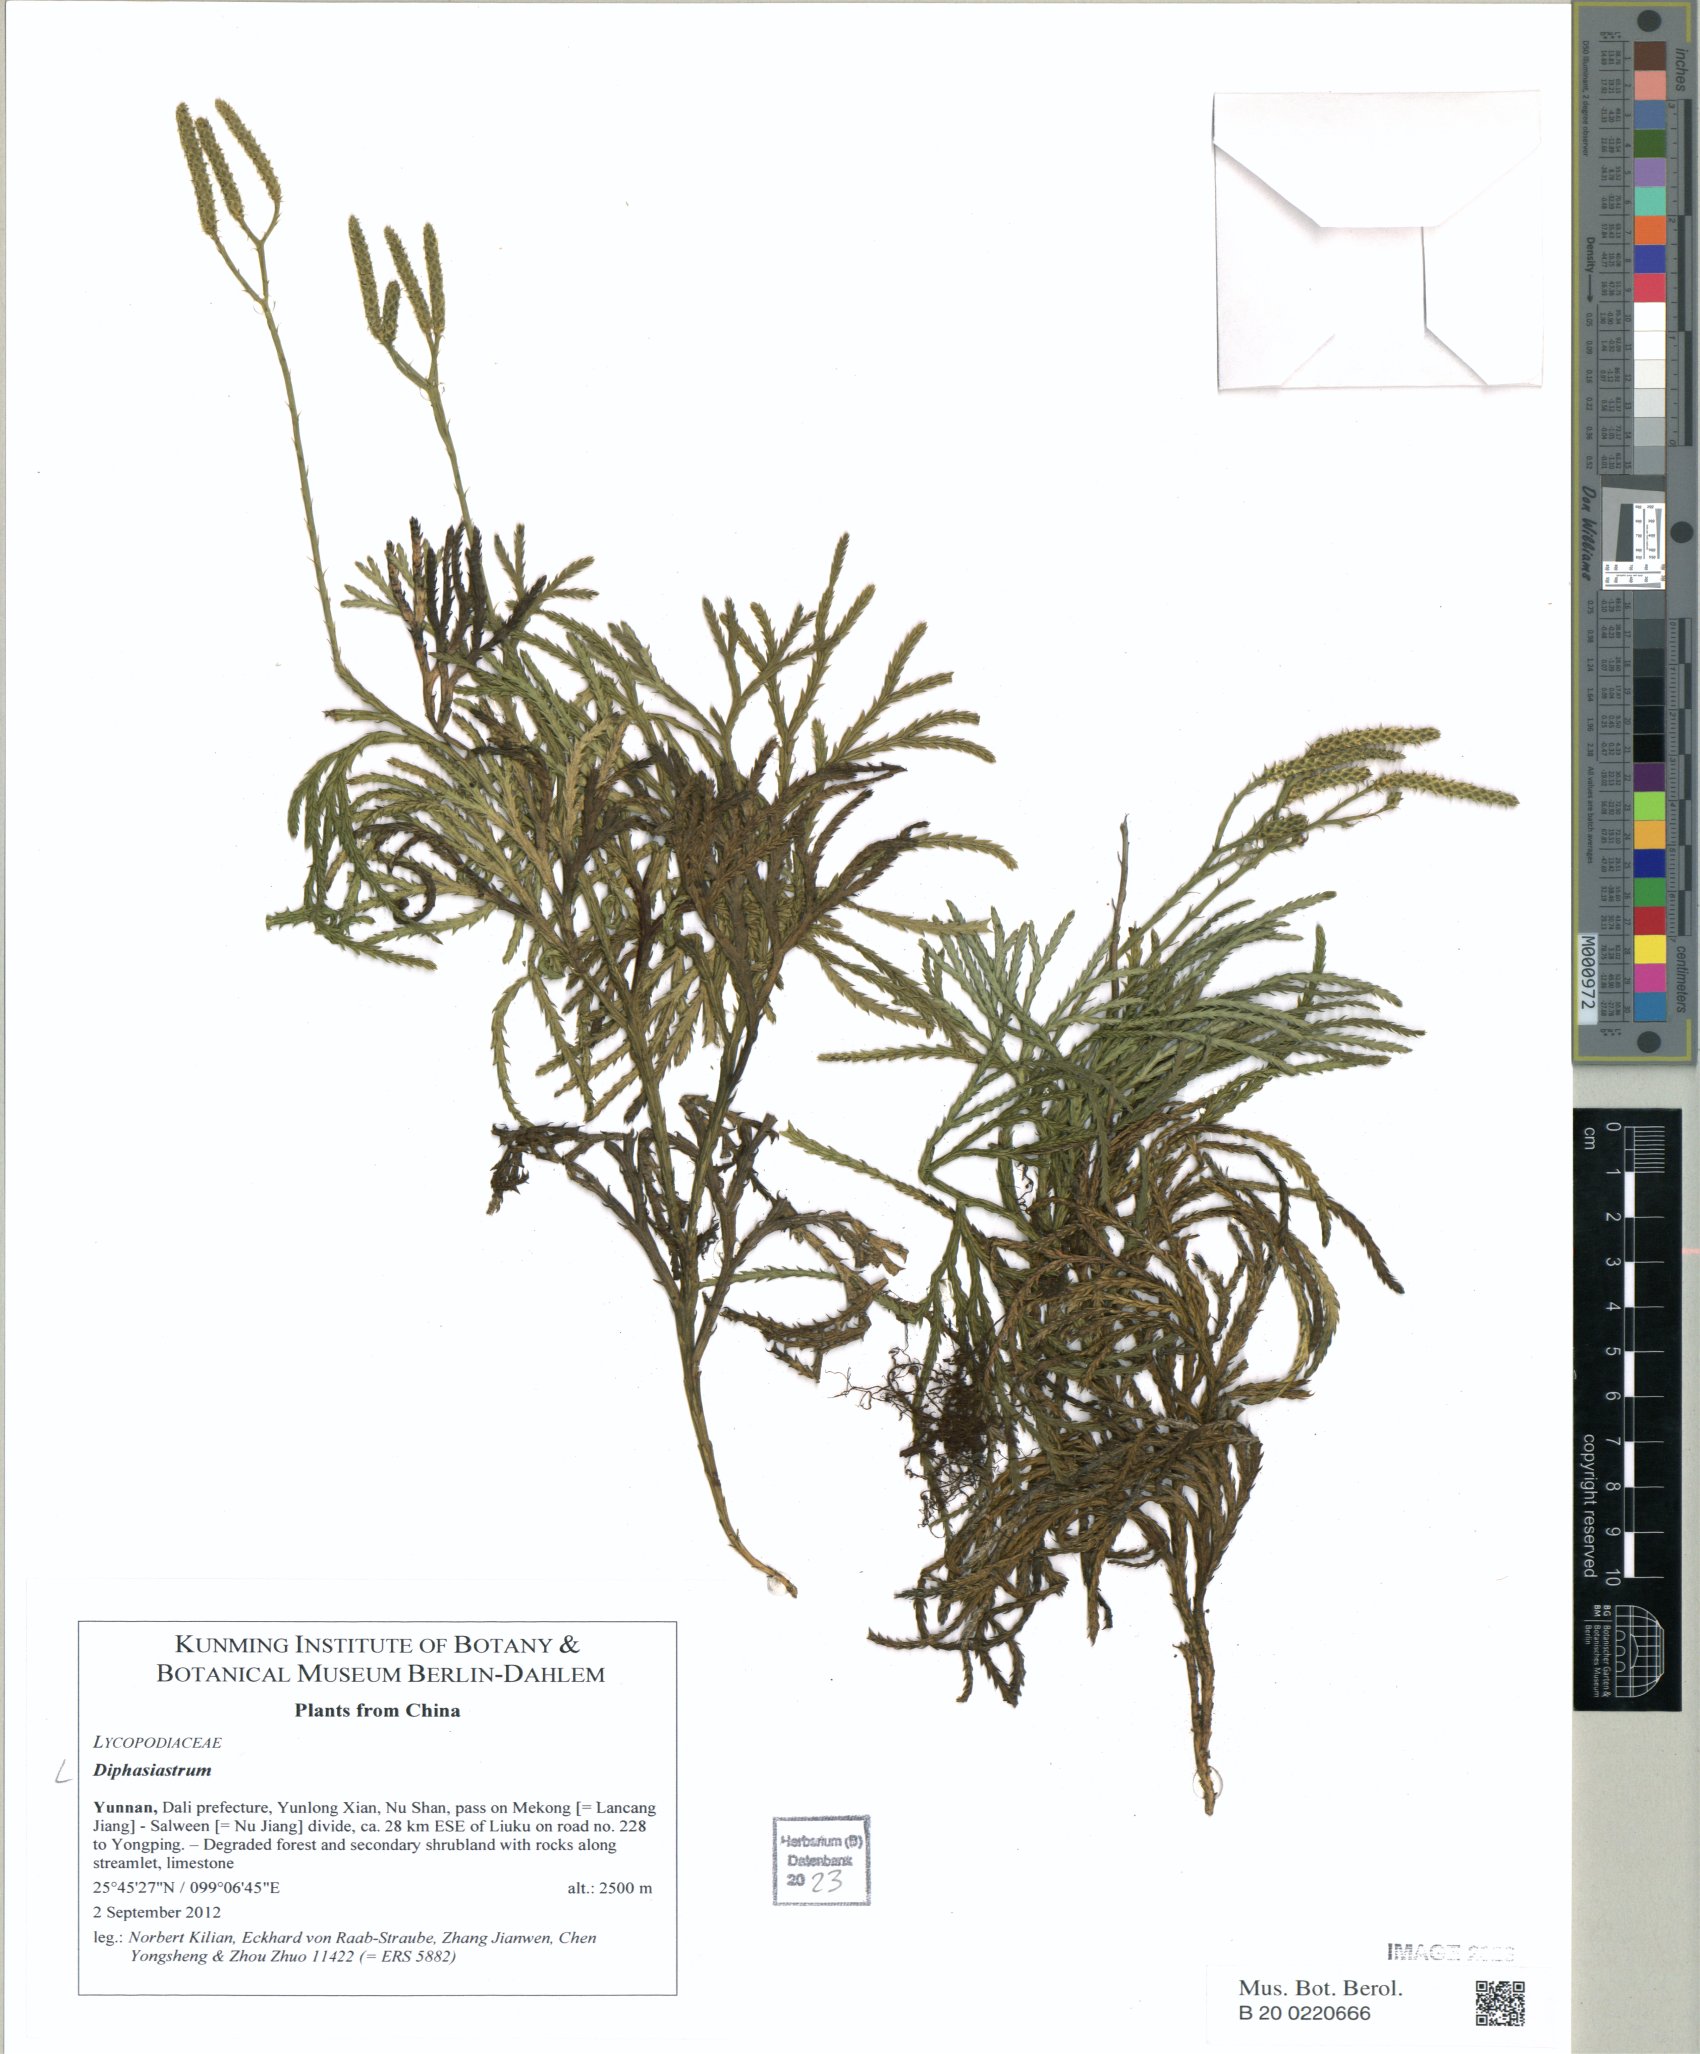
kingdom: Plantae
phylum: Tracheophyta
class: Lycopodiopsida
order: Lycopodiales
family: Lycopodiaceae
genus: Diphasiastrum
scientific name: Diphasiastrum
